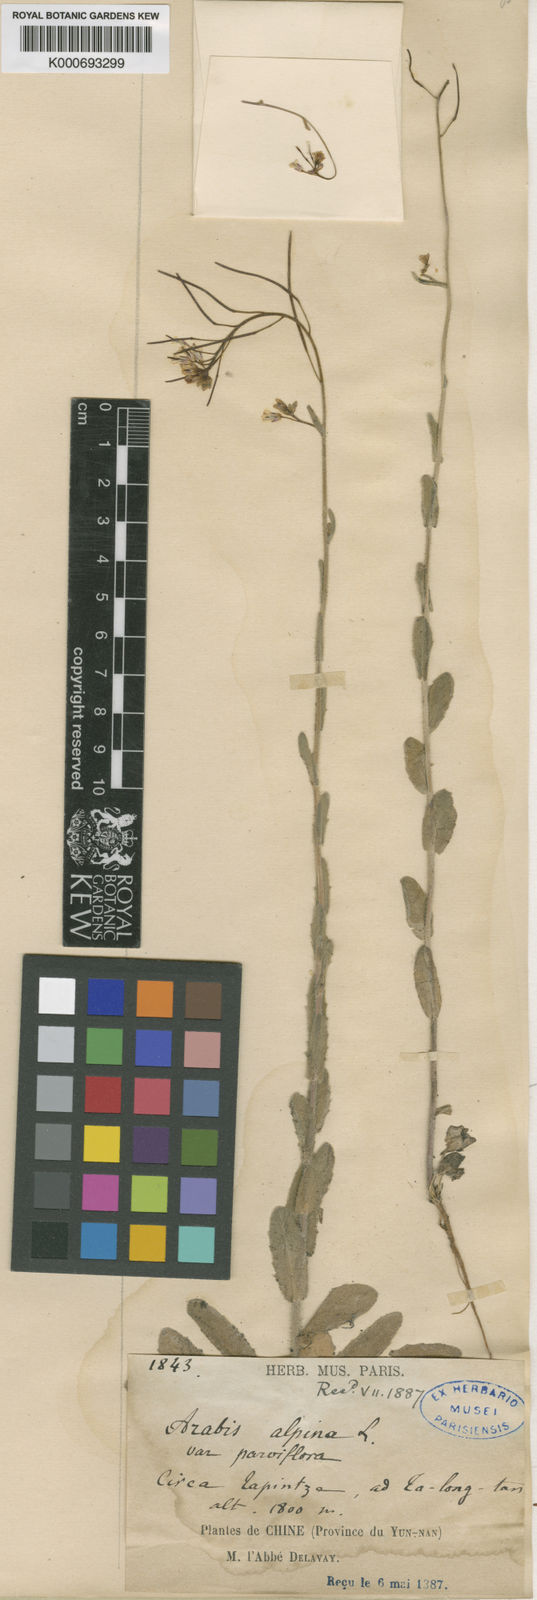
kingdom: Plantae
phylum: Tracheophyta
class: Magnoliopsida
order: Brassicales
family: Brassicaceae
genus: Arabis
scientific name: Arabis alpina
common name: Alpine rock-cress
